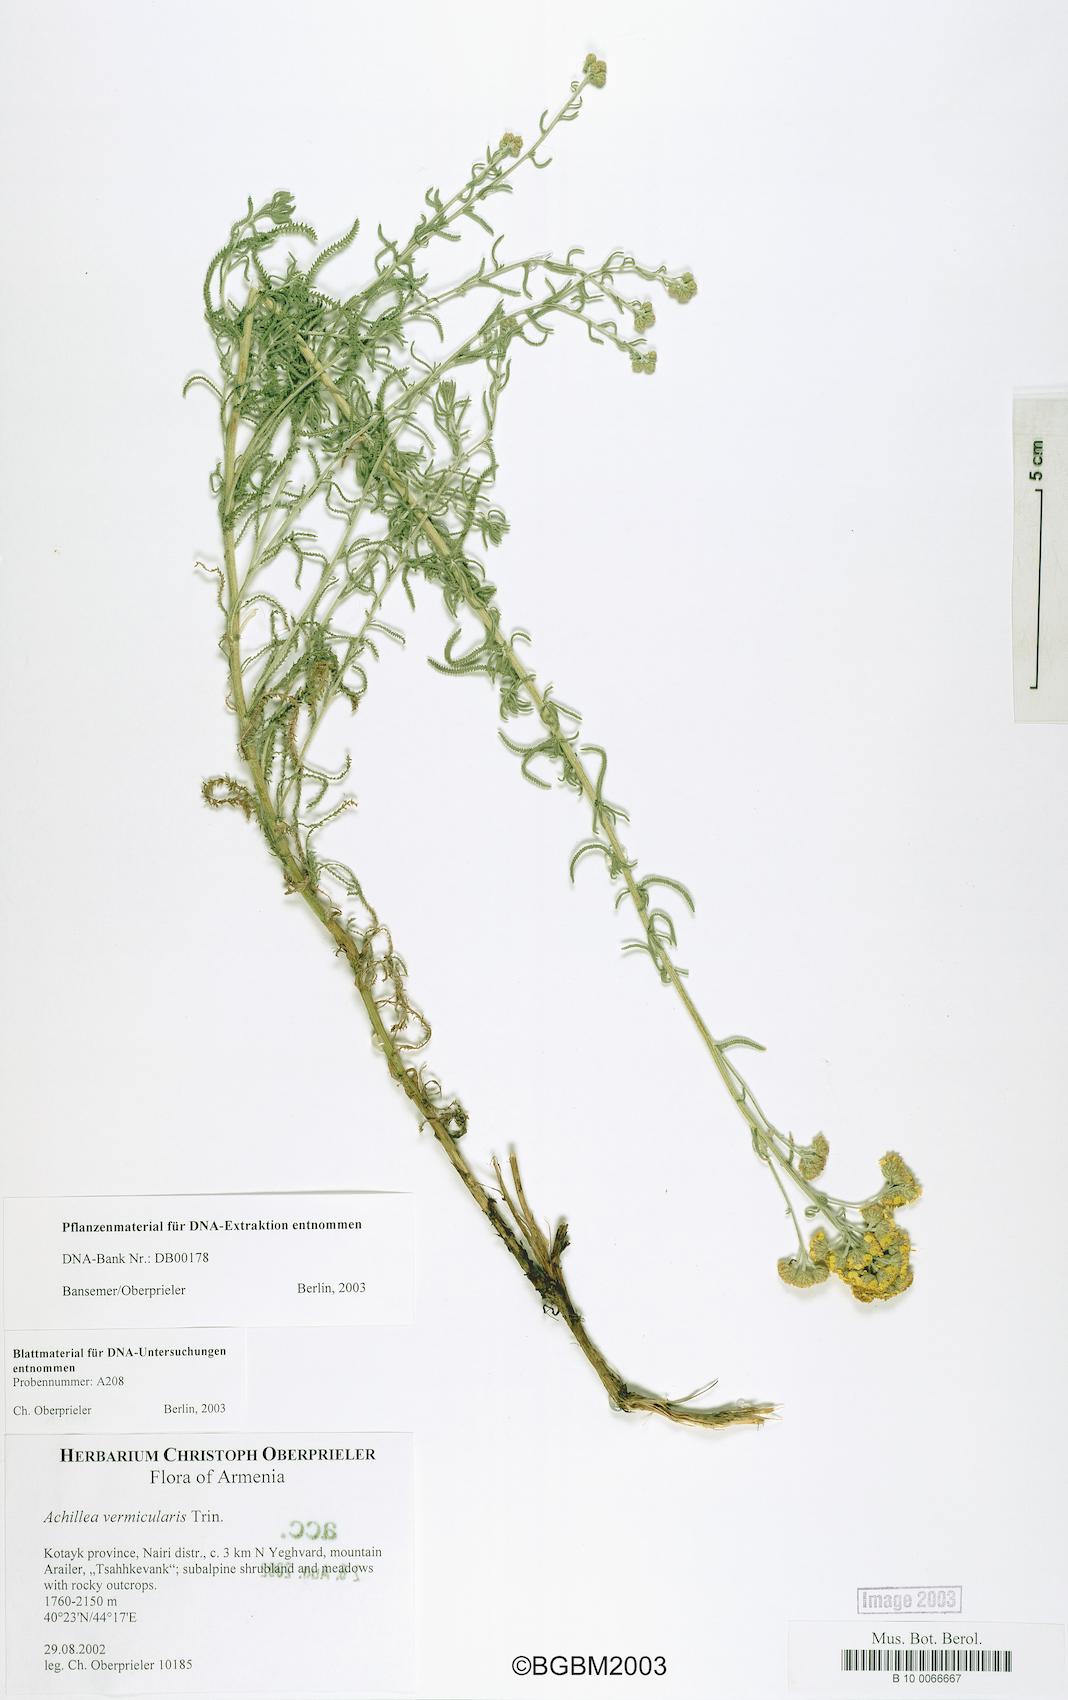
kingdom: Plantae
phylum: Tracheophyta
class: Magnoliopsida
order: Asterales
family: Asteraceae
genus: Achillea
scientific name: Achillea vermicularis
